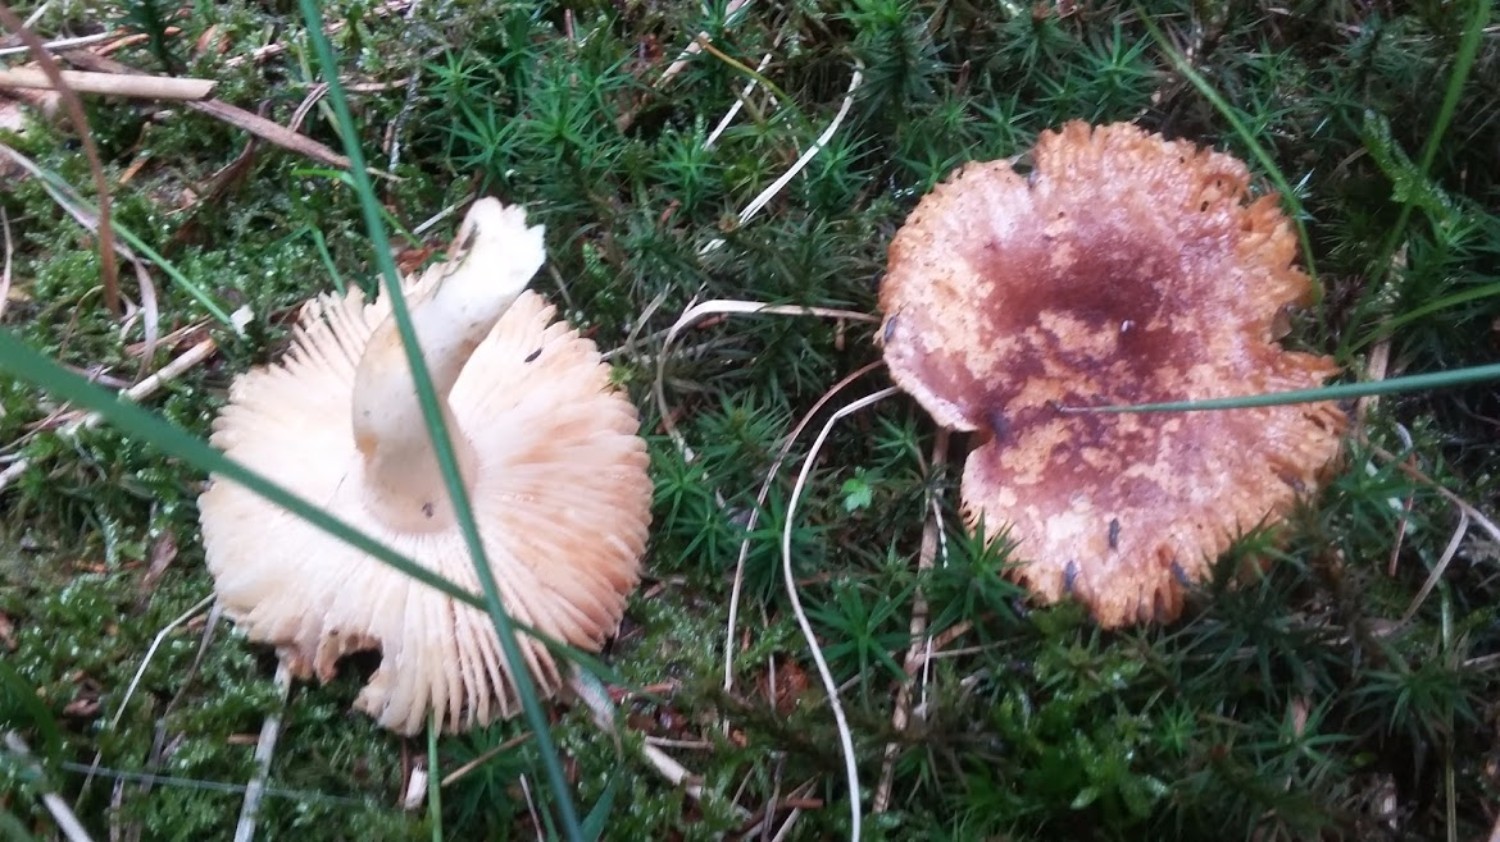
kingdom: Fungi
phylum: Basidiomycota
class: Agaricomycetes
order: Russulales
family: Russulaceae
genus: Russula
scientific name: Russula
